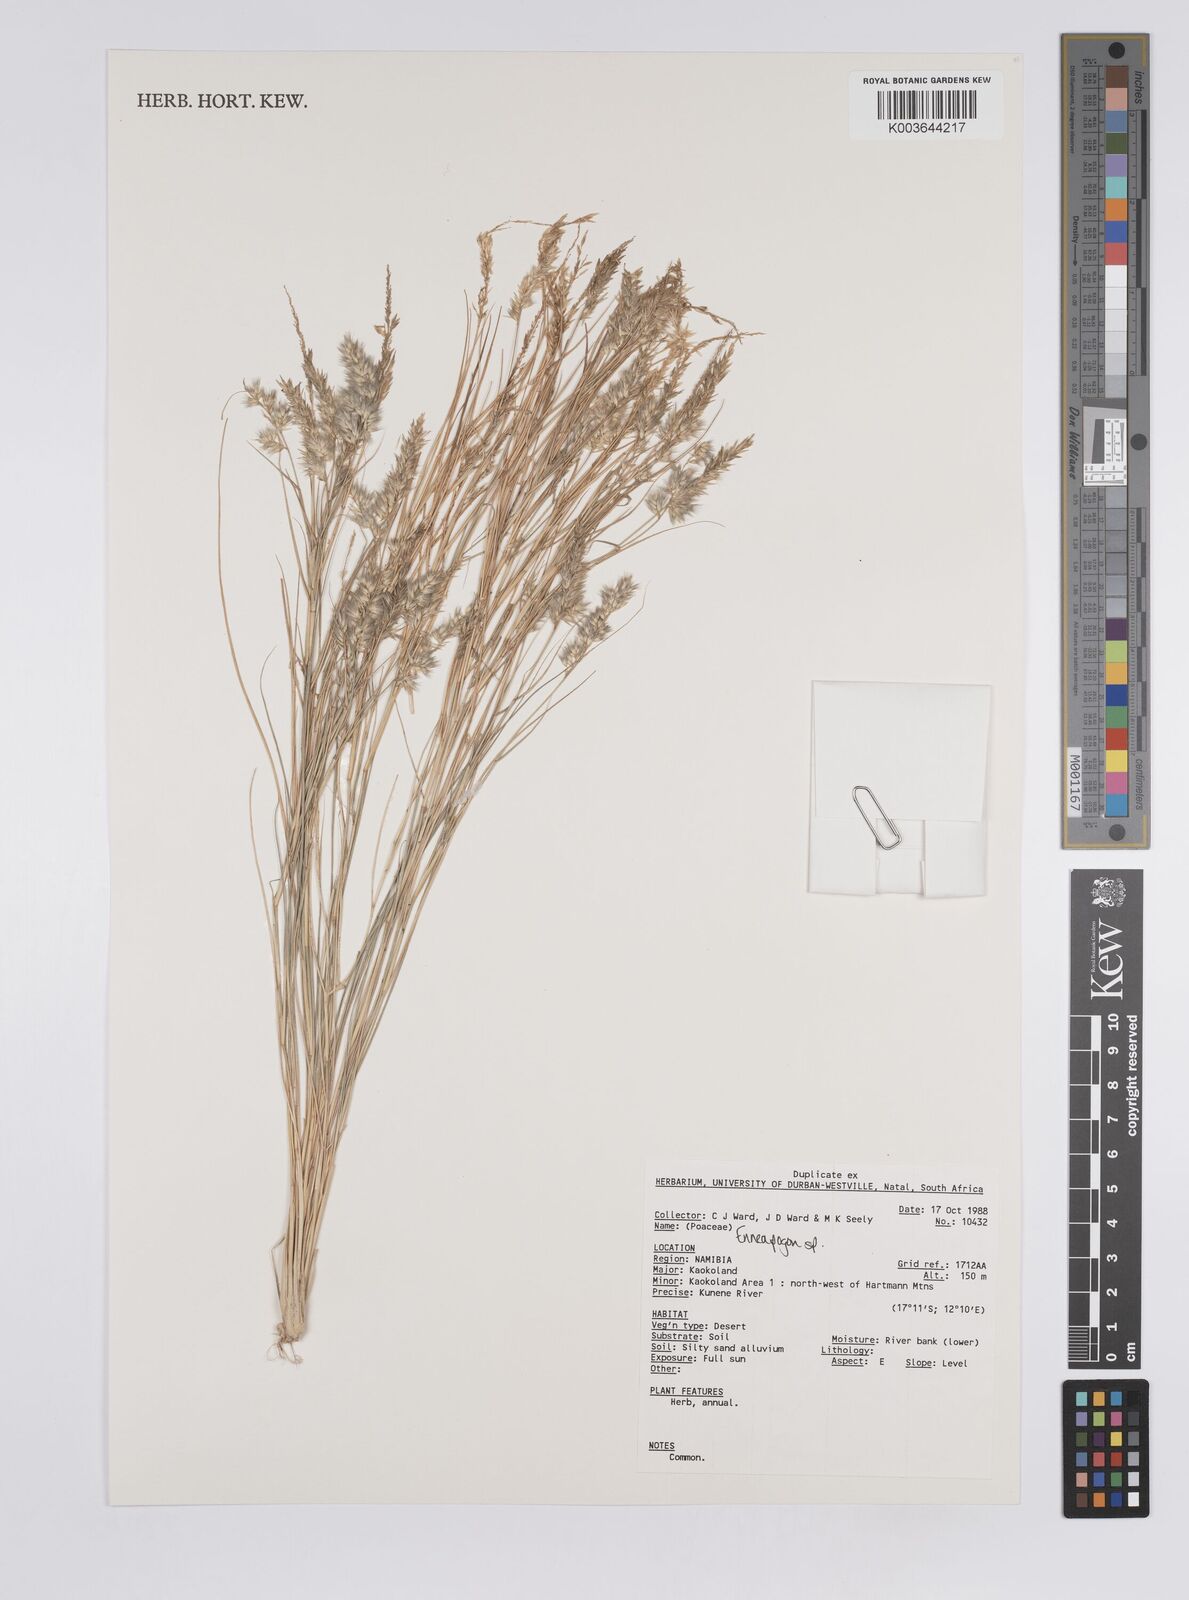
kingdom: Plantae
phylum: Tracheophyta
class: Liliopsida
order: Poales
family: Poaceae
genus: Enneapogon
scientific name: Enneapogon
